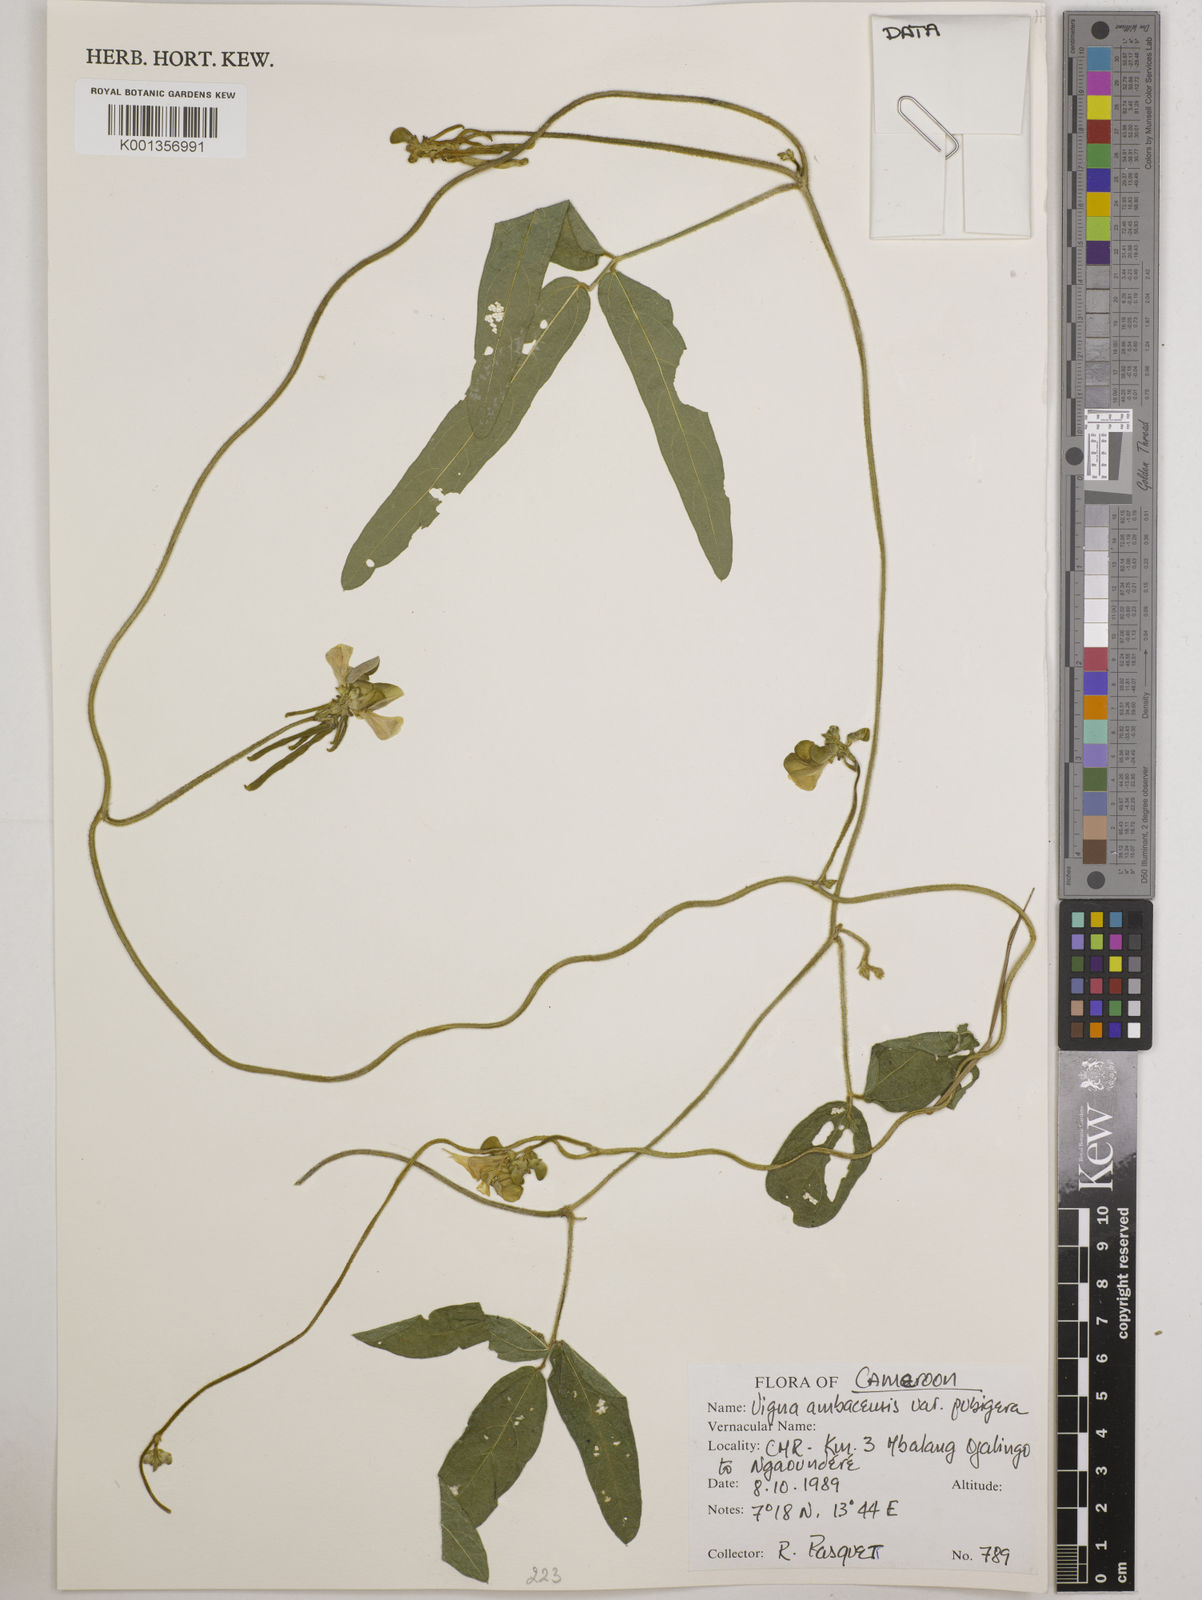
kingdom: Plantae
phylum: Tracheophyta
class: Magnoliopsida
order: Fabales
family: Fabaceae
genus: Vigna
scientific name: Vigna pubigera
